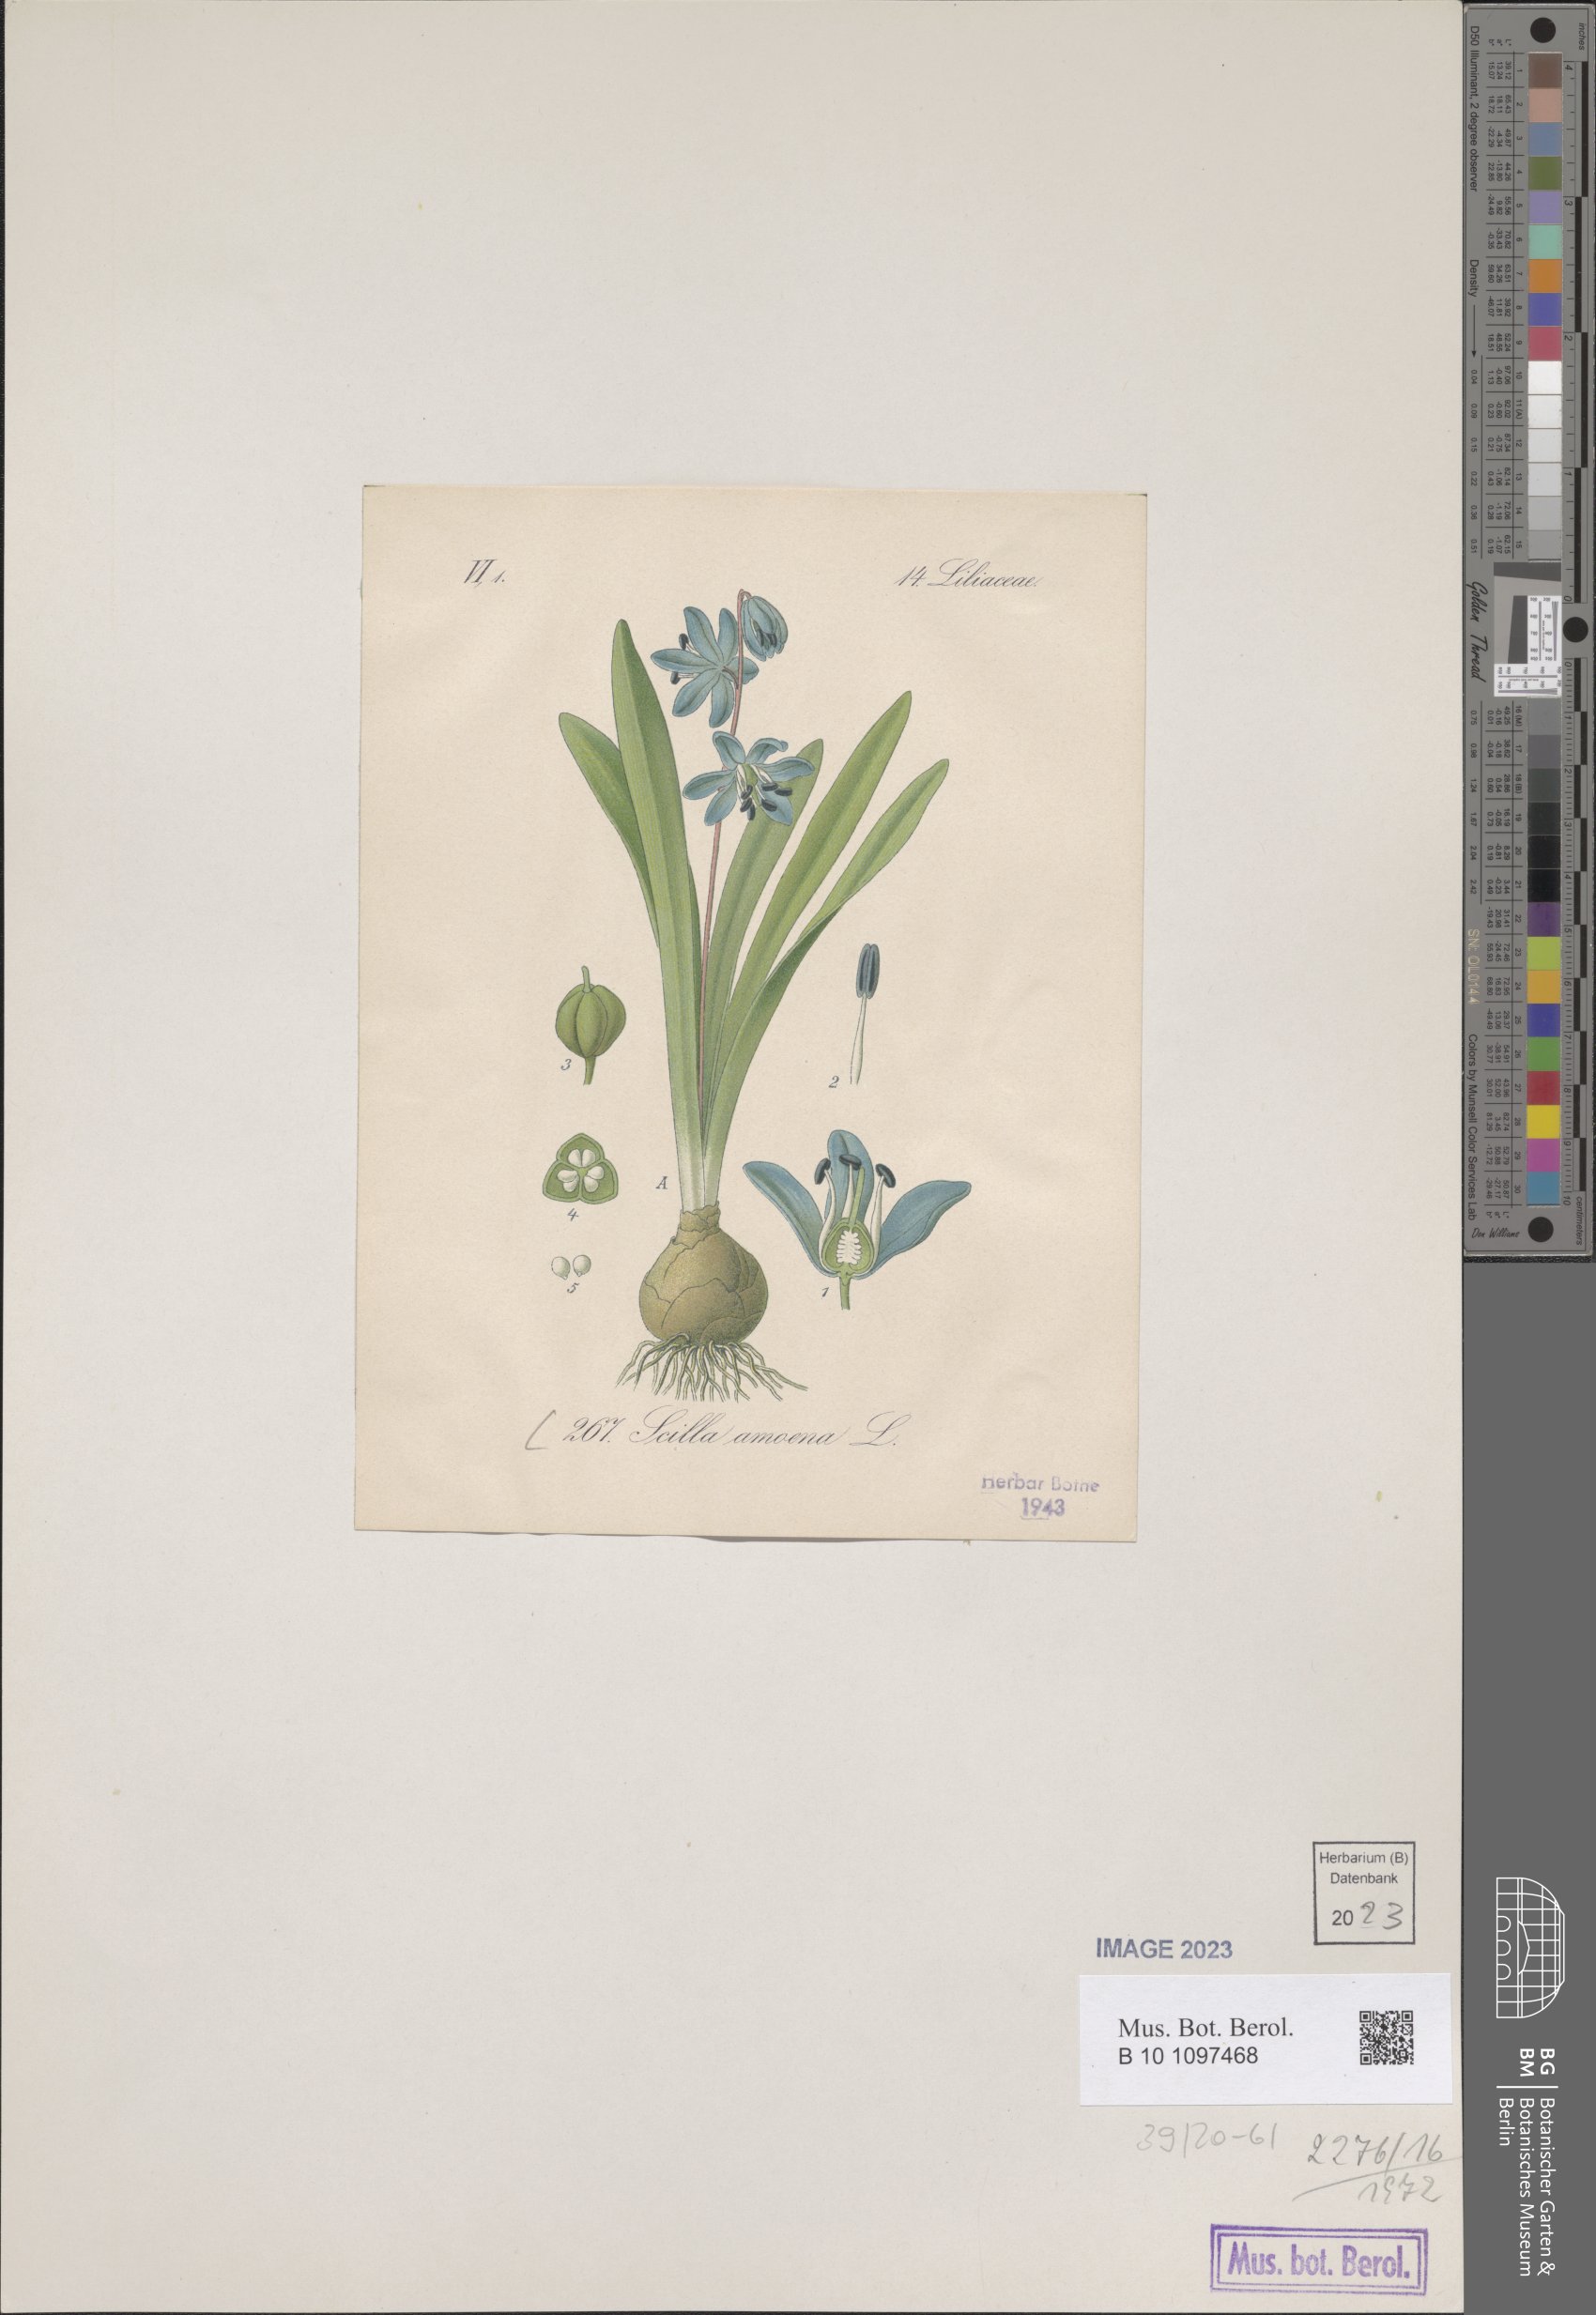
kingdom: Plantae
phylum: Tracheophyta
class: Liliopsida
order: Asparagales
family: Asparagaceae
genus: Scilla
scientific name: Scilla amoena
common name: Star-hyacinth
